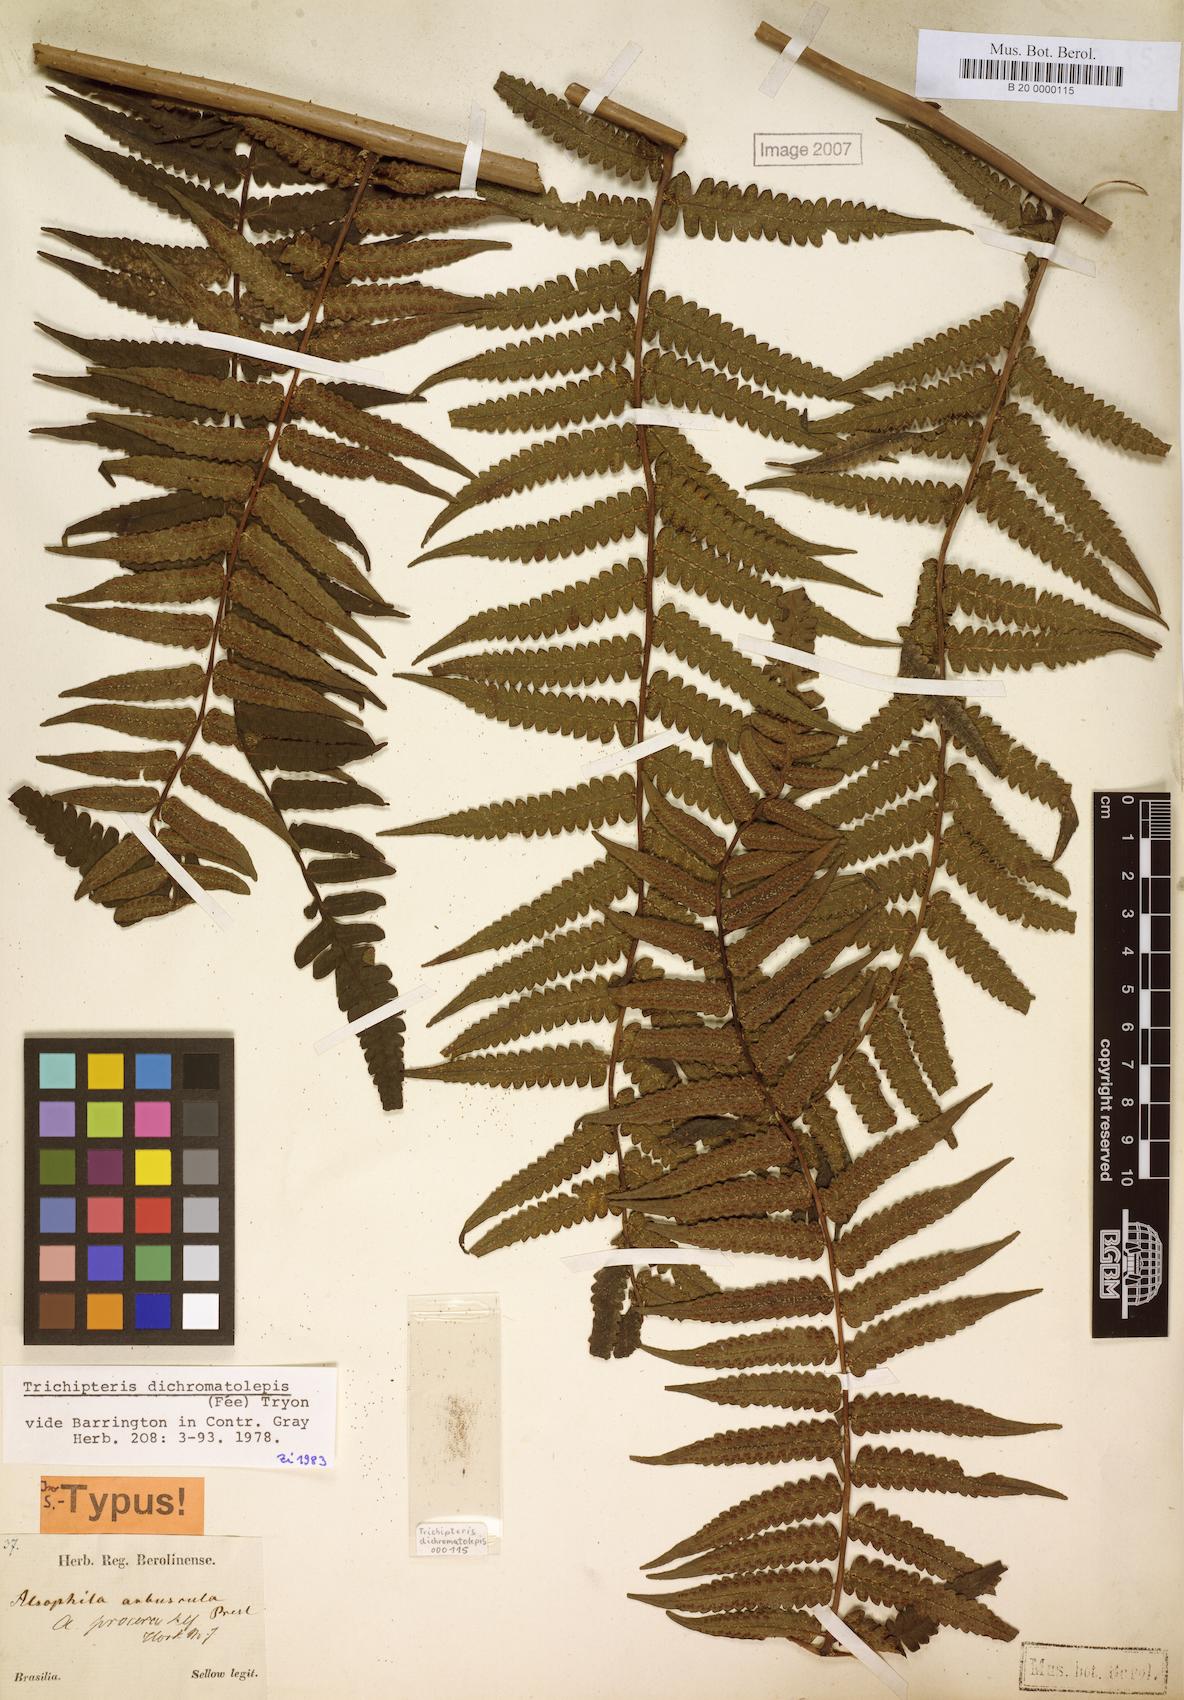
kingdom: Plantae
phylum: Tracheophyta
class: Polypodiopsida
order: Cyatheales
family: Cyatheaceae
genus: Cyathea
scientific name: Cyathea dichromatolepis
